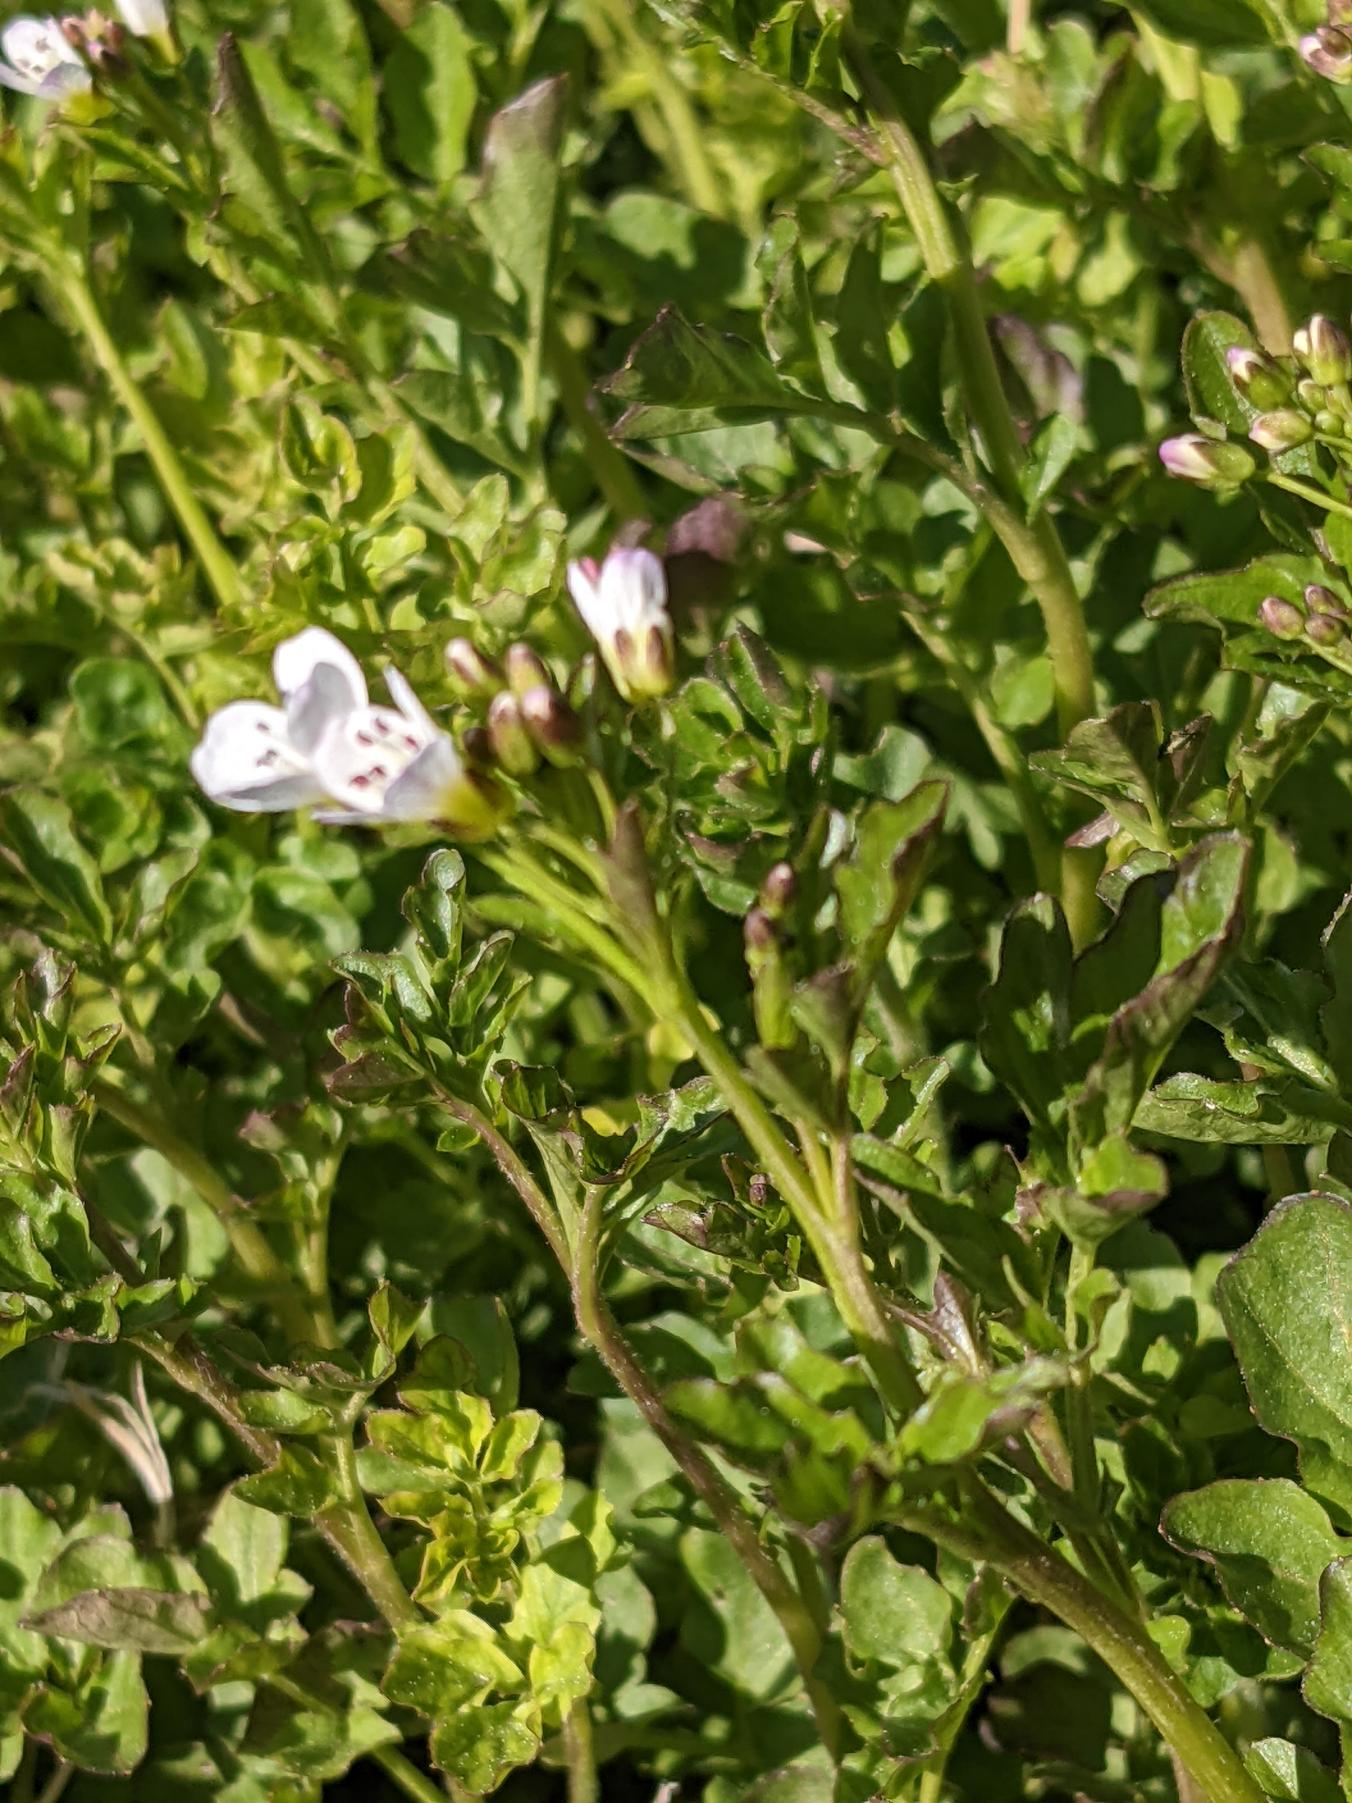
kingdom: Plantae
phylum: Tracheophyta
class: Magnoliopsida
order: Brassicales
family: Brassicaceae
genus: Cardamine
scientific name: Cardamine amara
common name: Vandkarse
